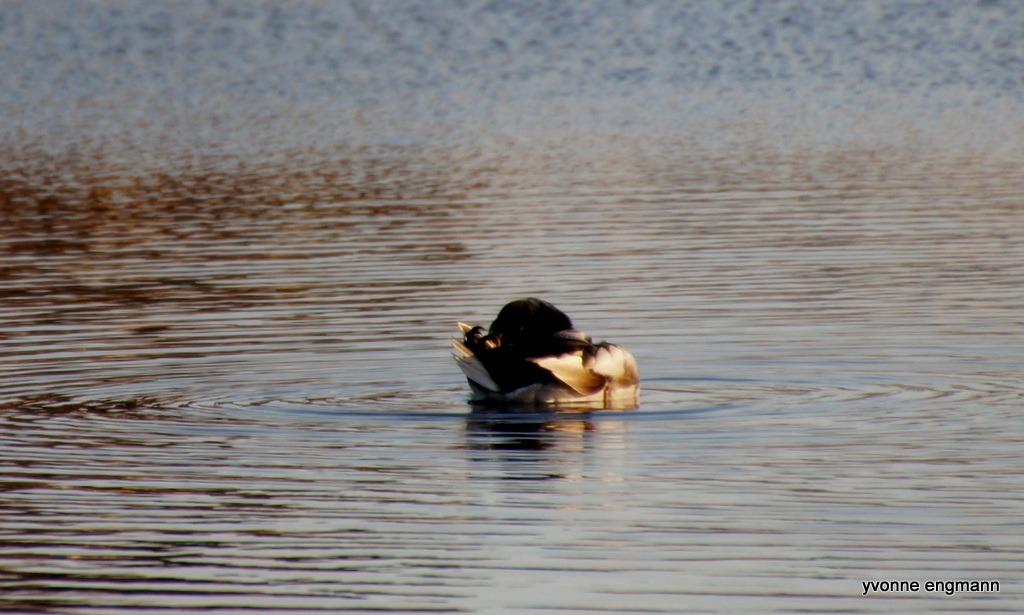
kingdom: Animalia
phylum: Chordata
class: Aves
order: Anseriformes
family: Anatidae
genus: Anas
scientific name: Anas platyrhynchos
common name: Gråand
